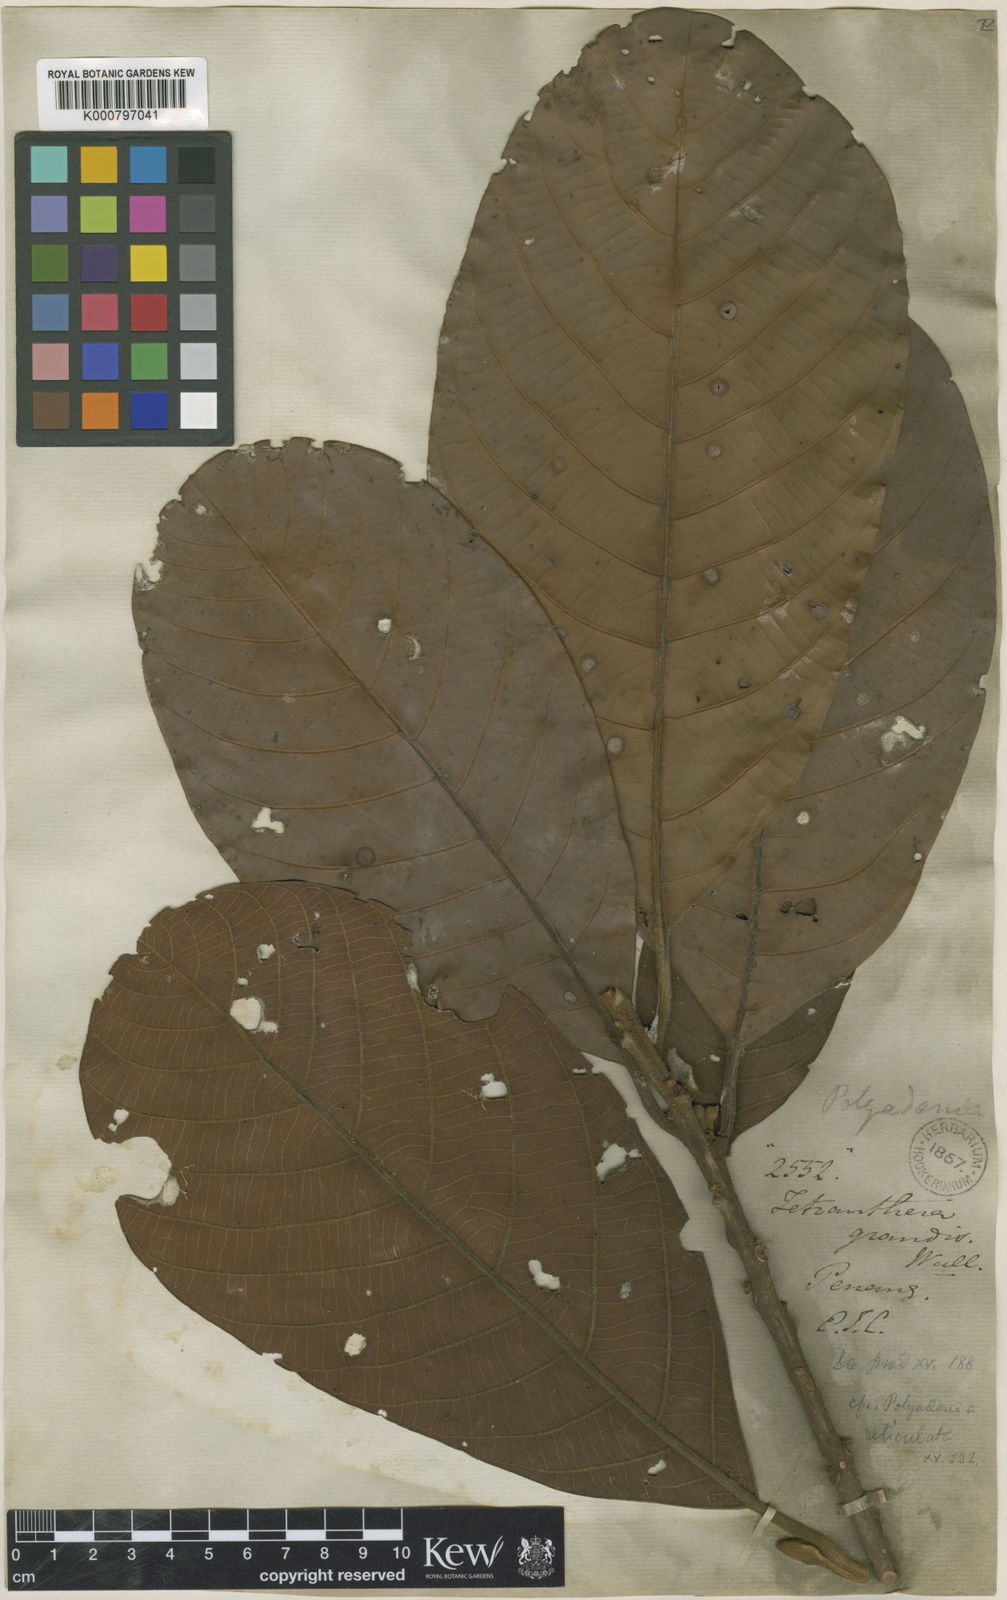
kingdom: Plantae
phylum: Tracheophyta
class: Magnoliopsida
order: Laurales
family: Lauraceae
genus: Litsea
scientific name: Litsea grandis
